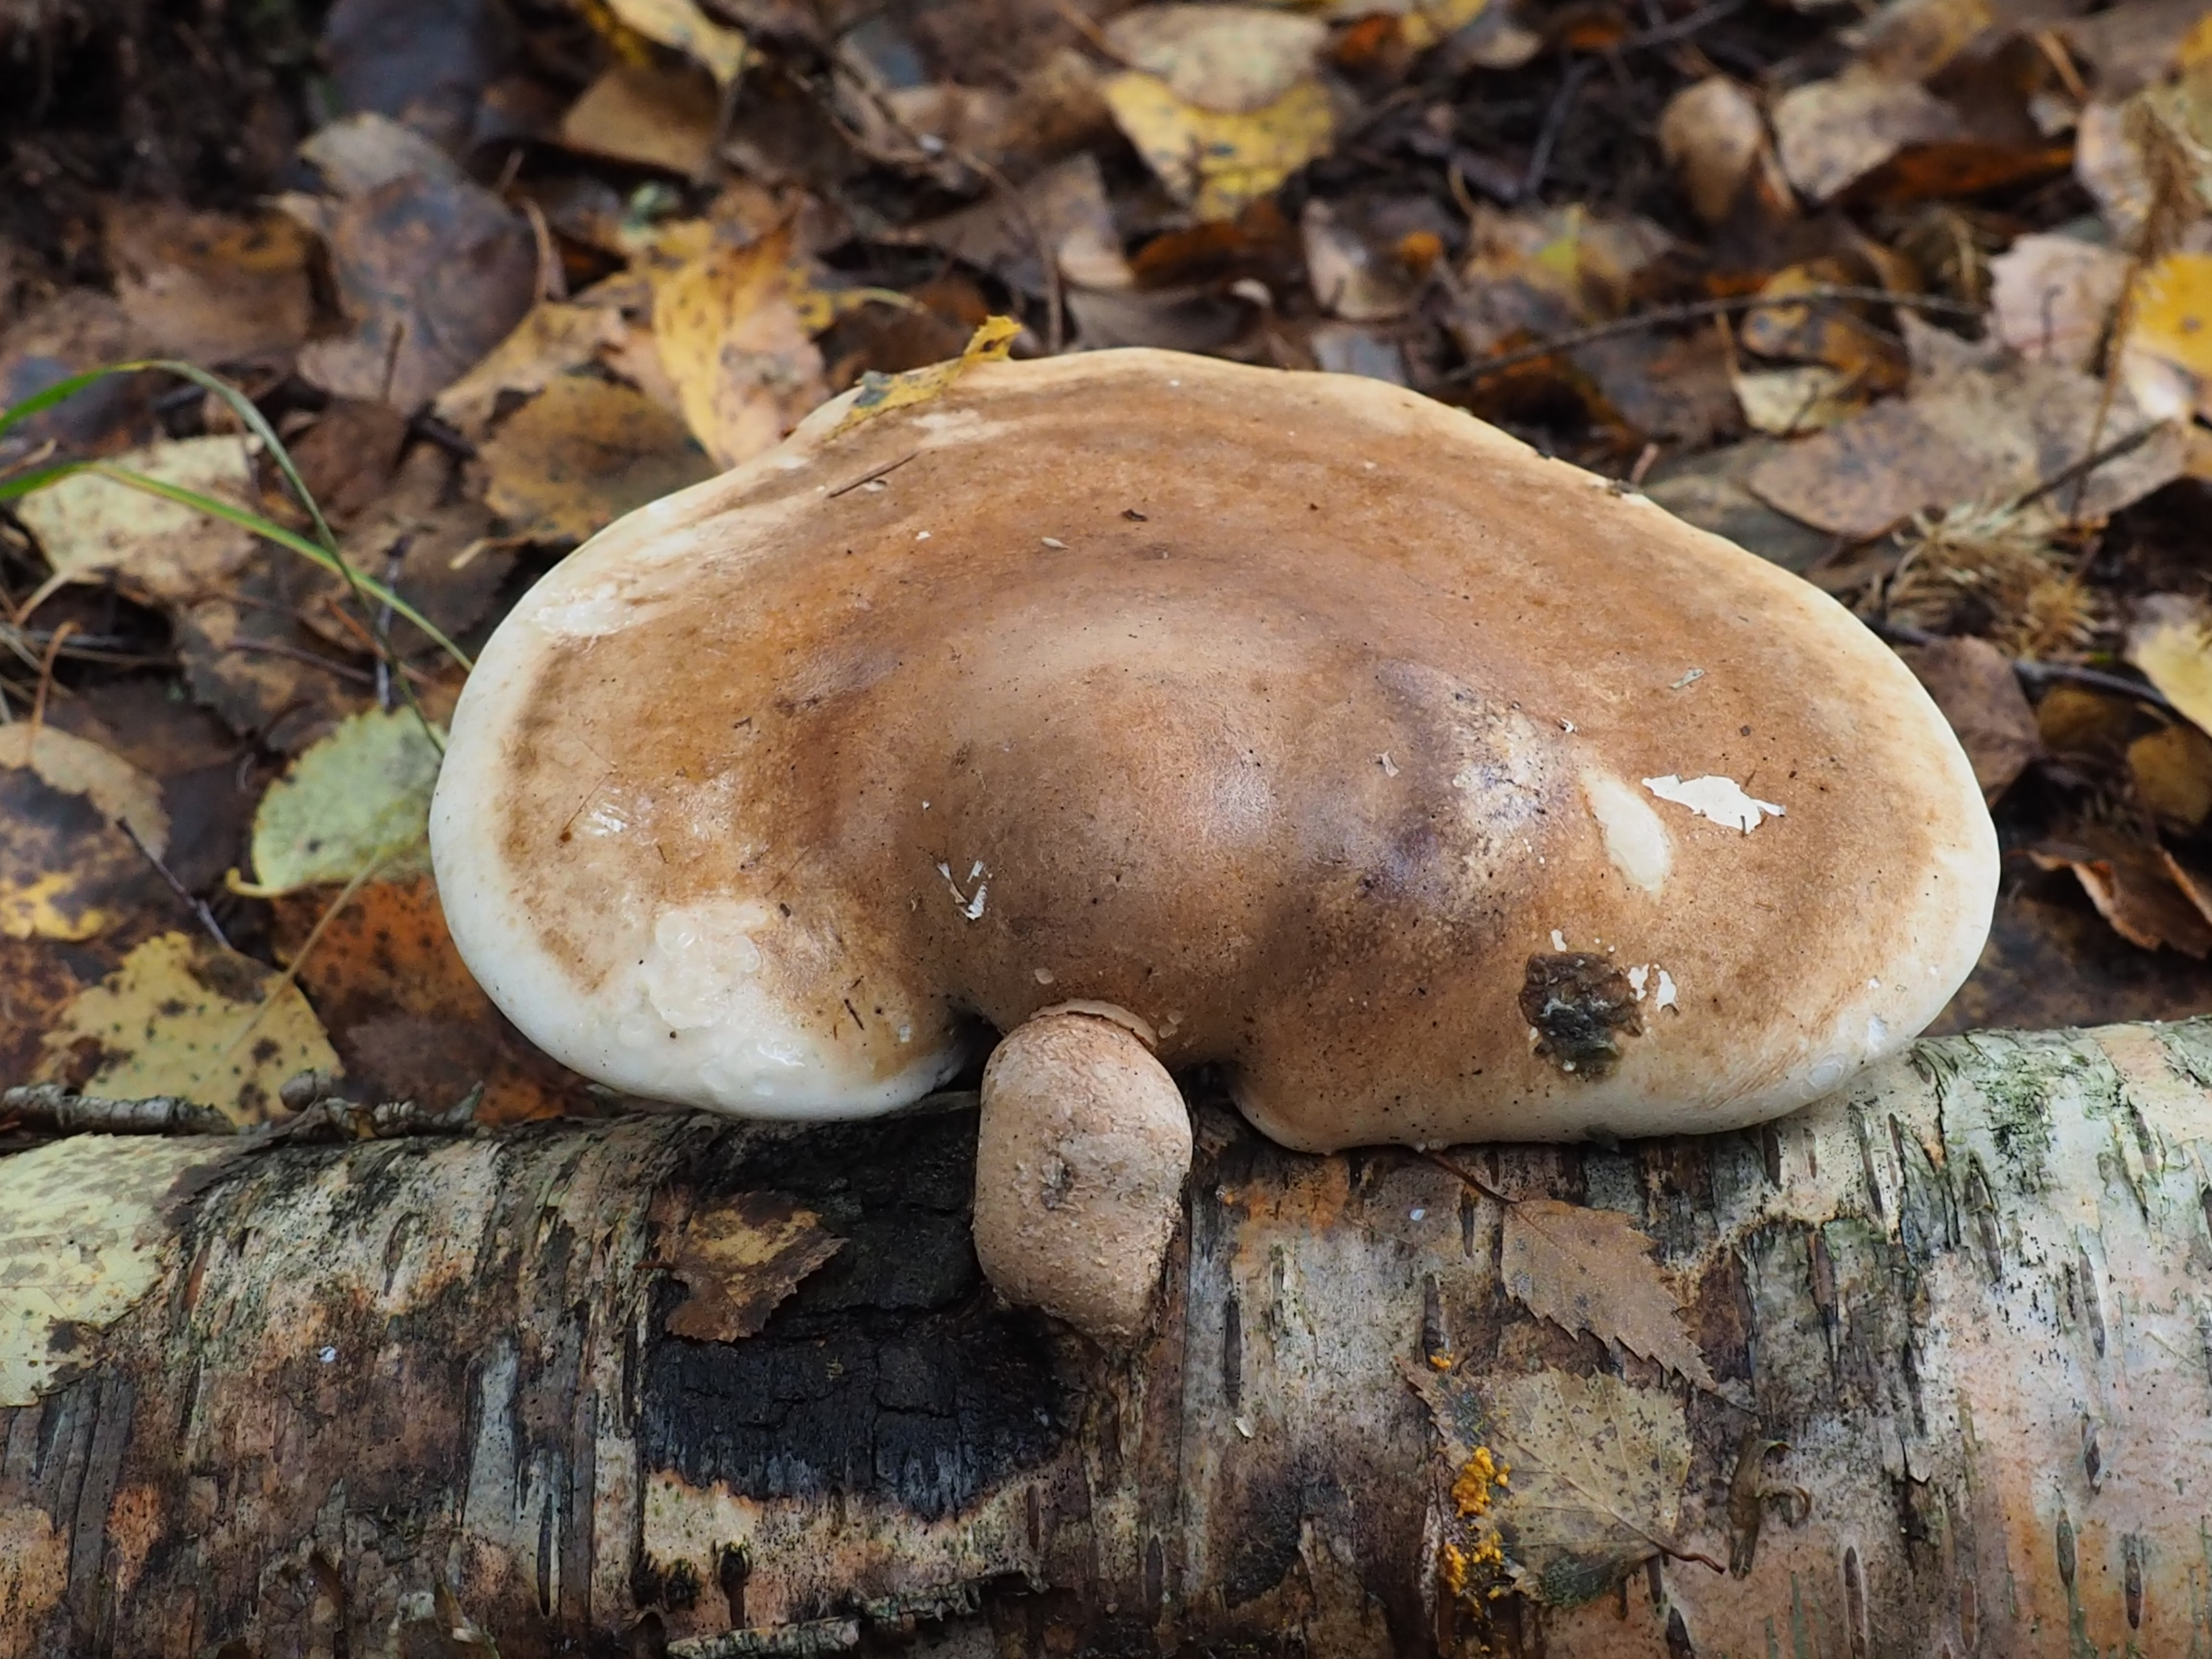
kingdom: Fungi
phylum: Basidiomycota
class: Agaricomycetes
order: Polyporales
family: Fomitopsidaceae
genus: Fomitopsis
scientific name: Fomitopsis betulina
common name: Birch polypore
